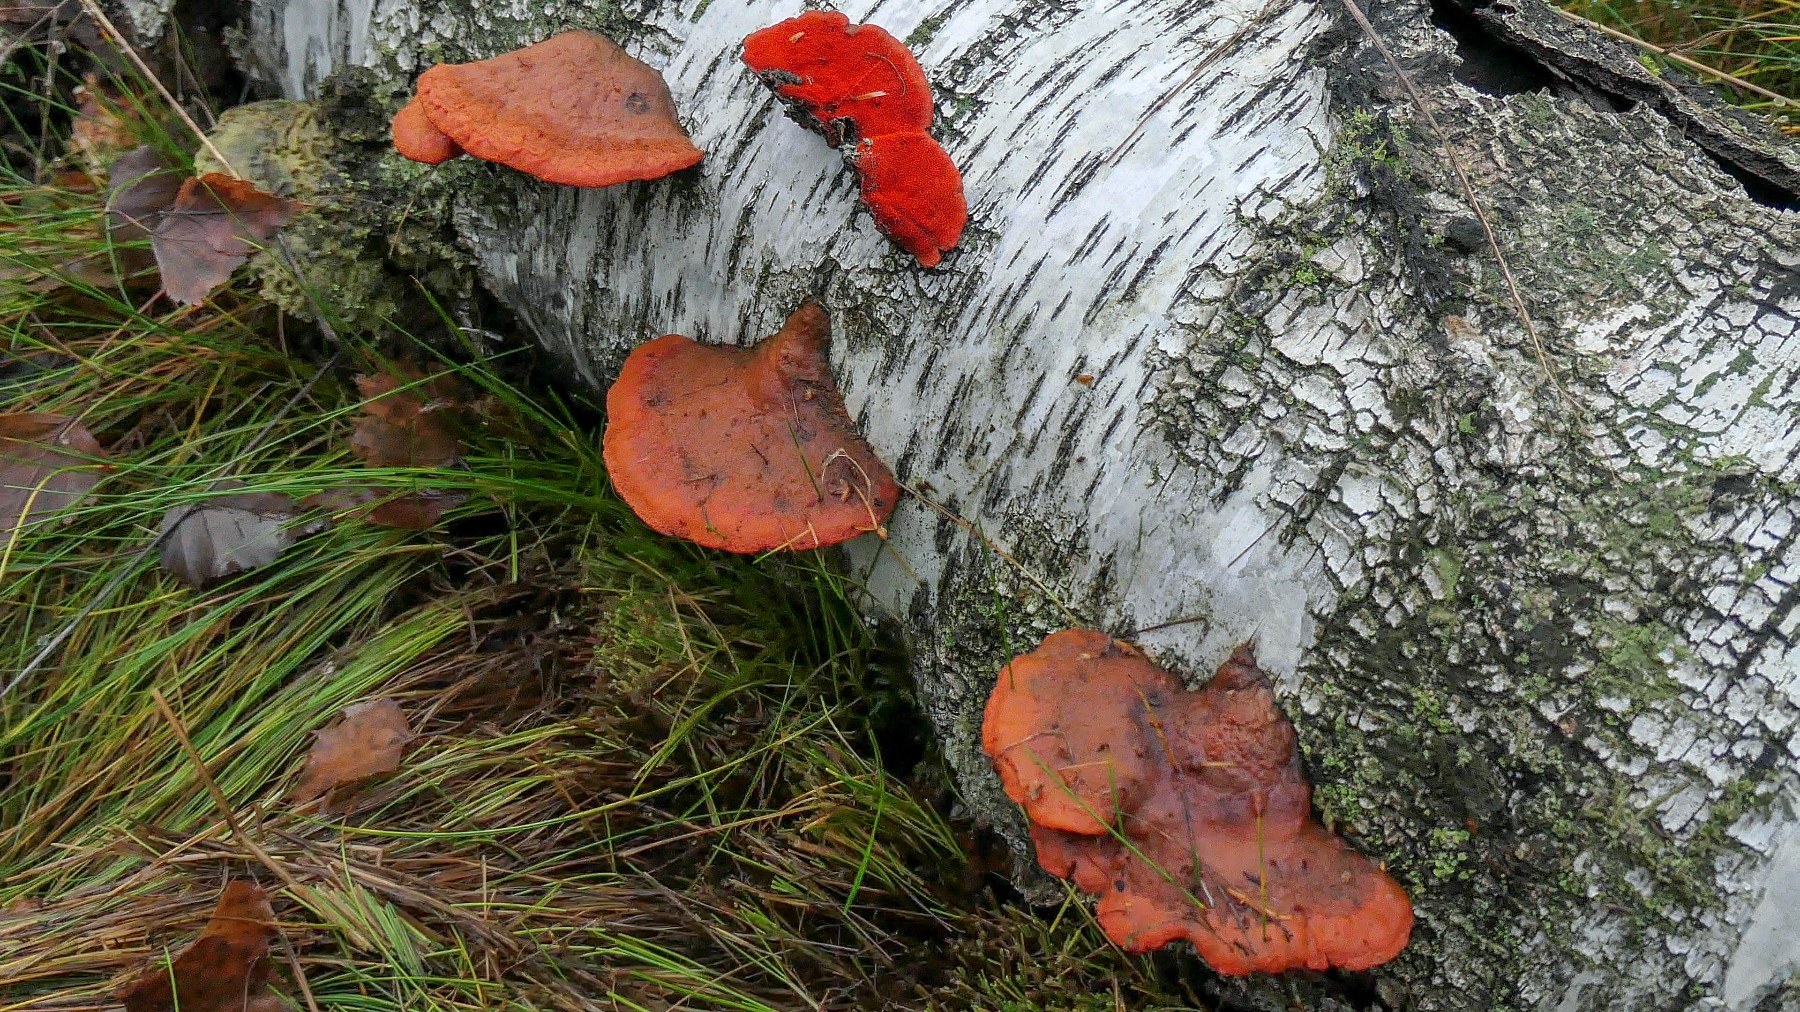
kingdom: Fungi
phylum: Basidiomycota
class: Agaricomycetes
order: Polyporales
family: Polyporaceae
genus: Trametes
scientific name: Trametes cinnabarina
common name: cinnoberporesvamp
